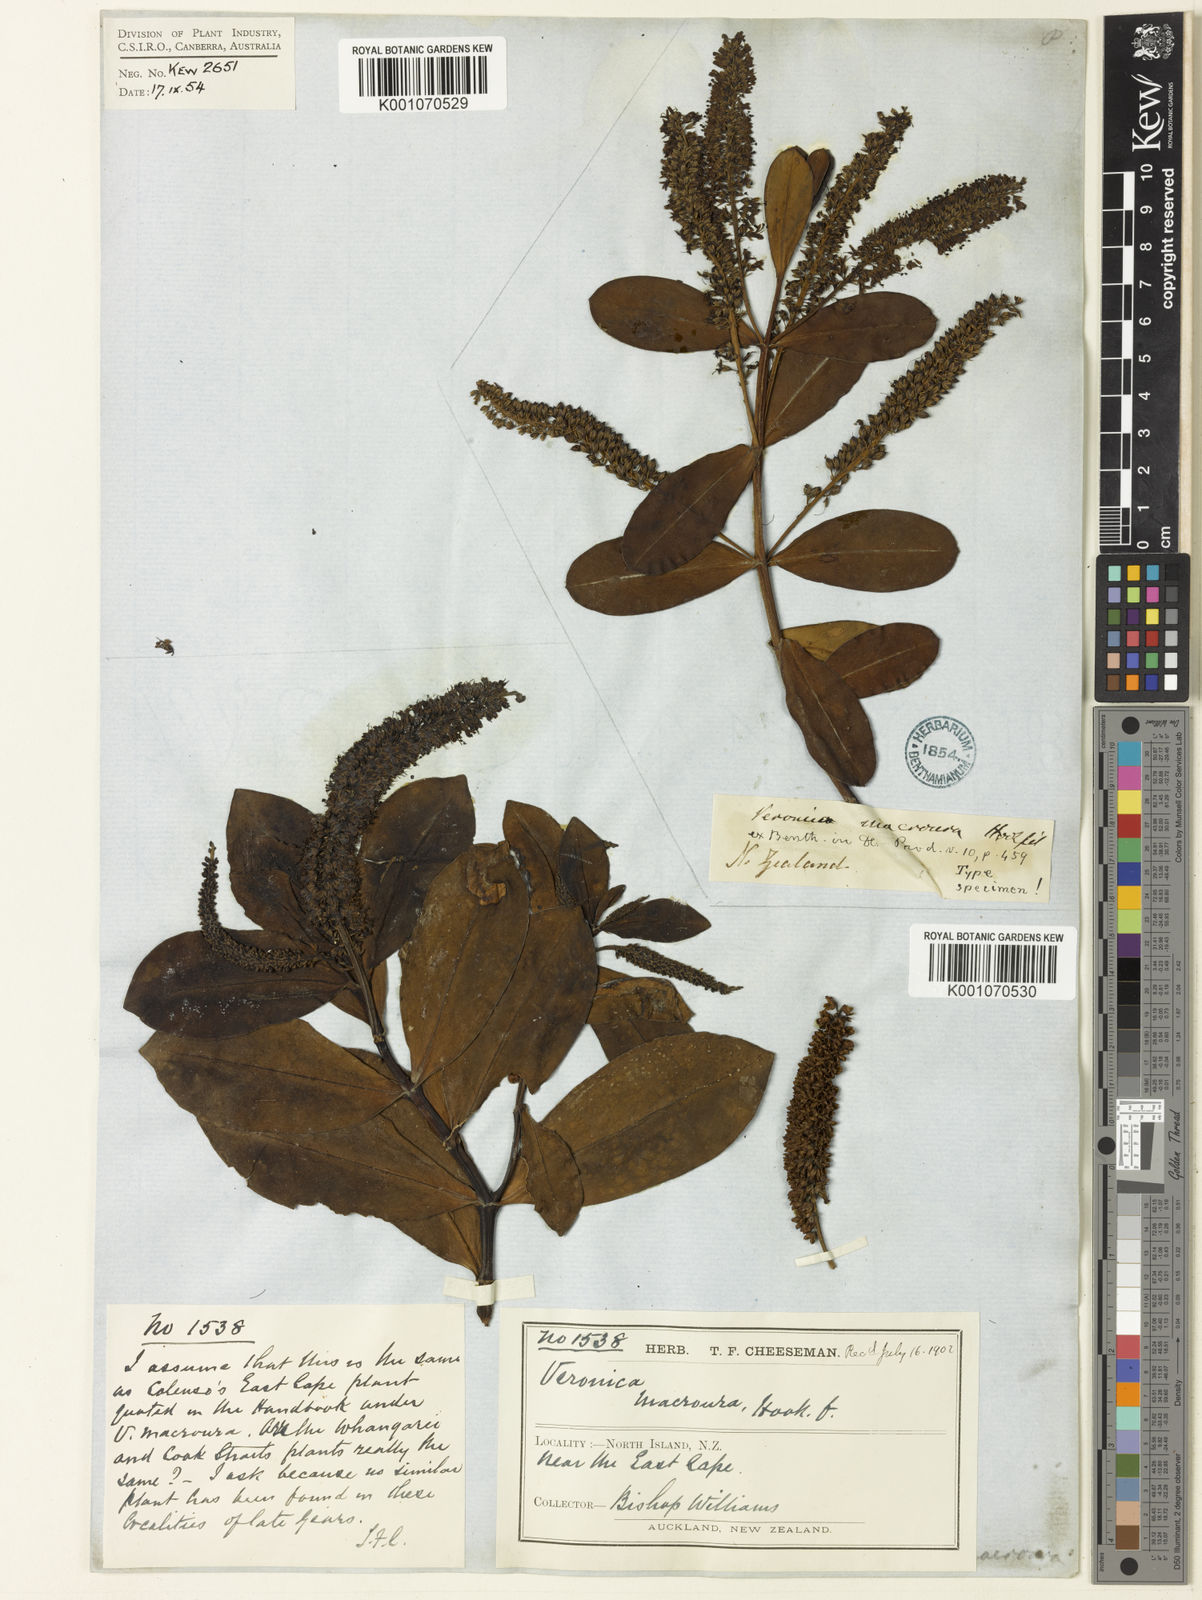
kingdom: Plantae
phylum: Tracheophyta
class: Magnoliopsida
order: Lamiales
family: Plantaginaceae
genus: Veronica
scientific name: Veronica
